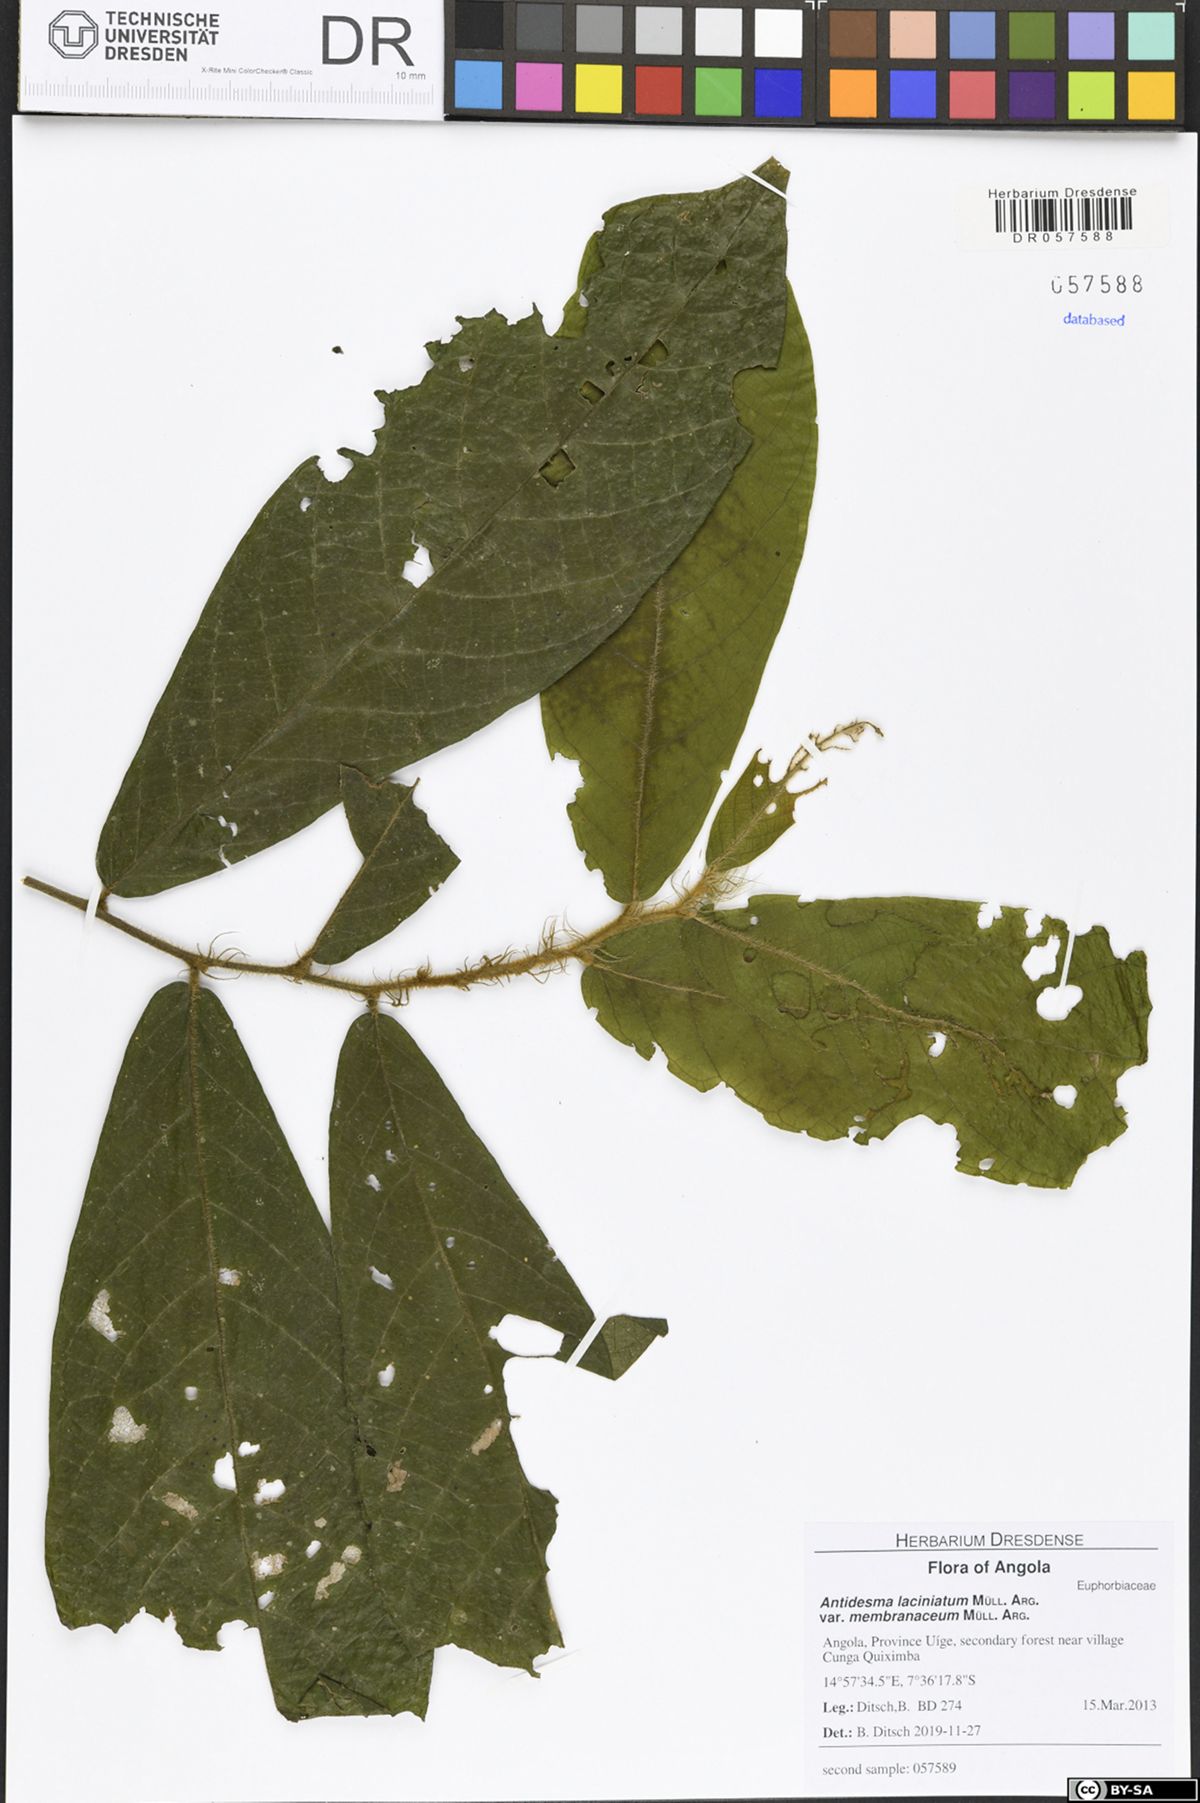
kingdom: Plantae
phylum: Tracheophyta
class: Magnoliopsida
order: Malpighiales
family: Phyllanthaceae
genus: Antidesma
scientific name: Antidesma laciniatum
